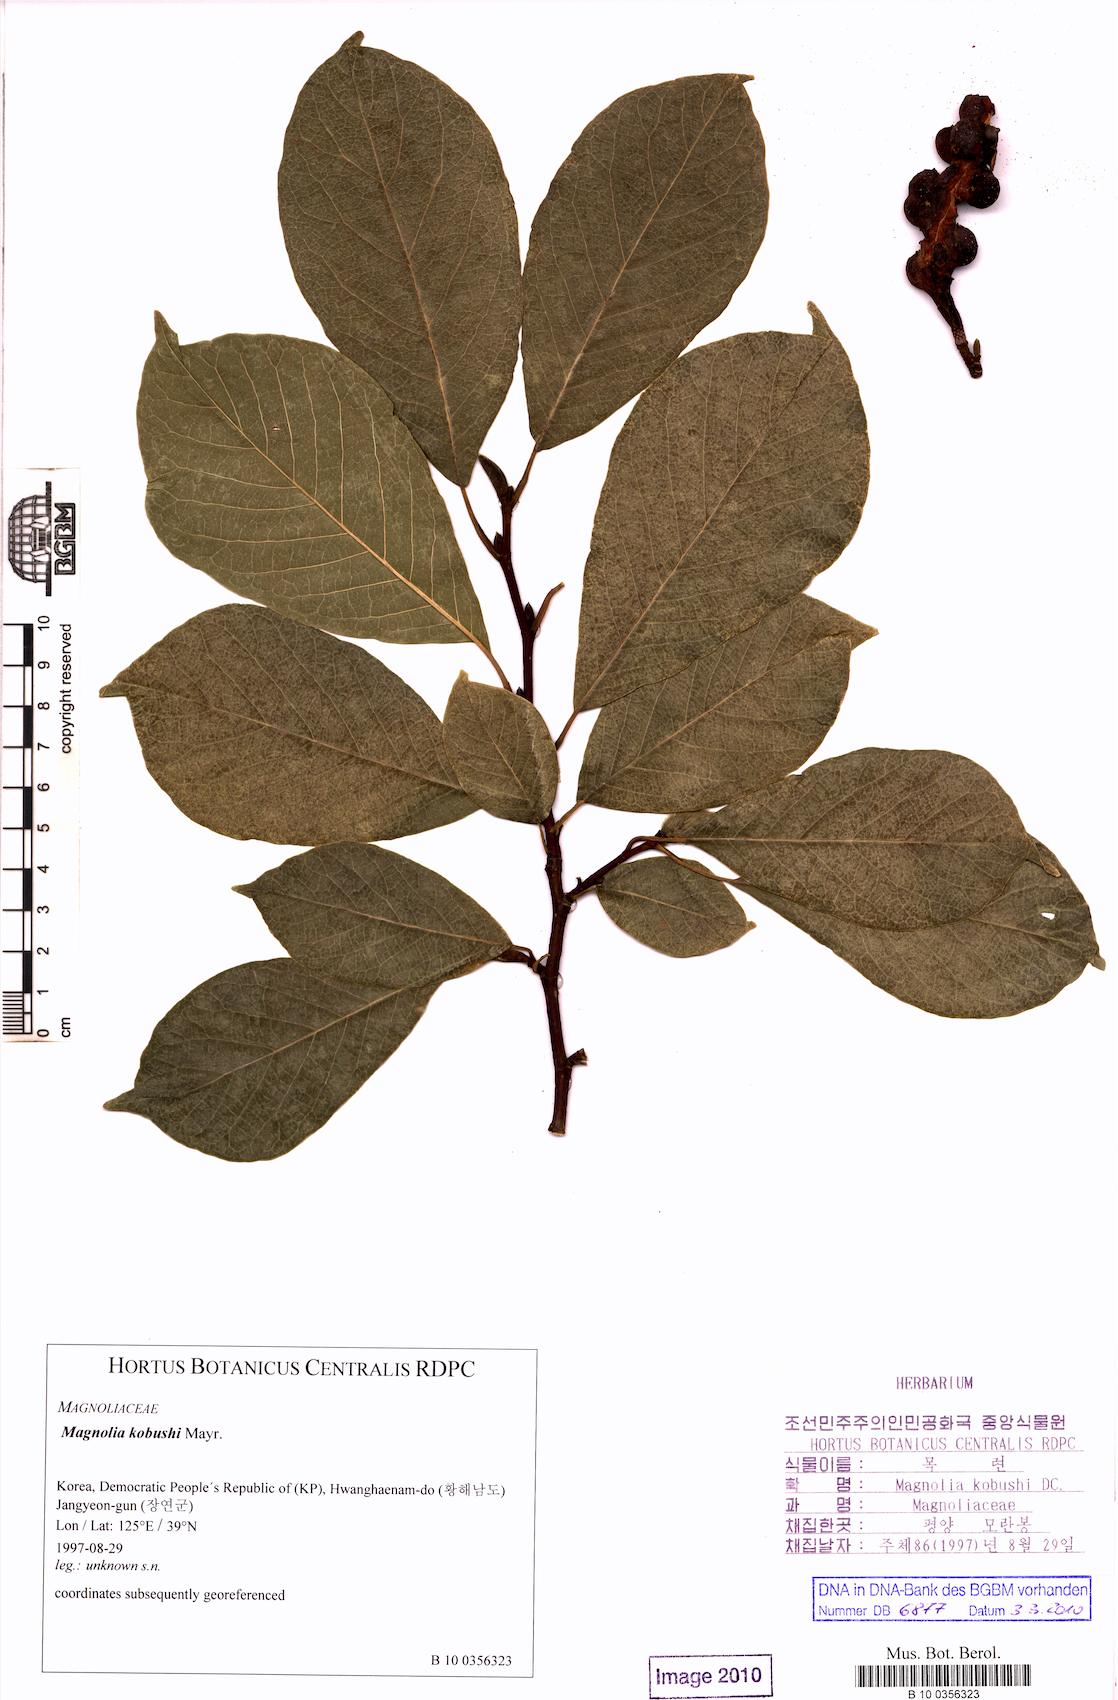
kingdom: Plantae
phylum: Tracheophyta
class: Magnoliopsida
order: Magnoliales
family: Magnoliaceae
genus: Magnolia
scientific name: Magnolia kobus
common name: Kobus magnolia
